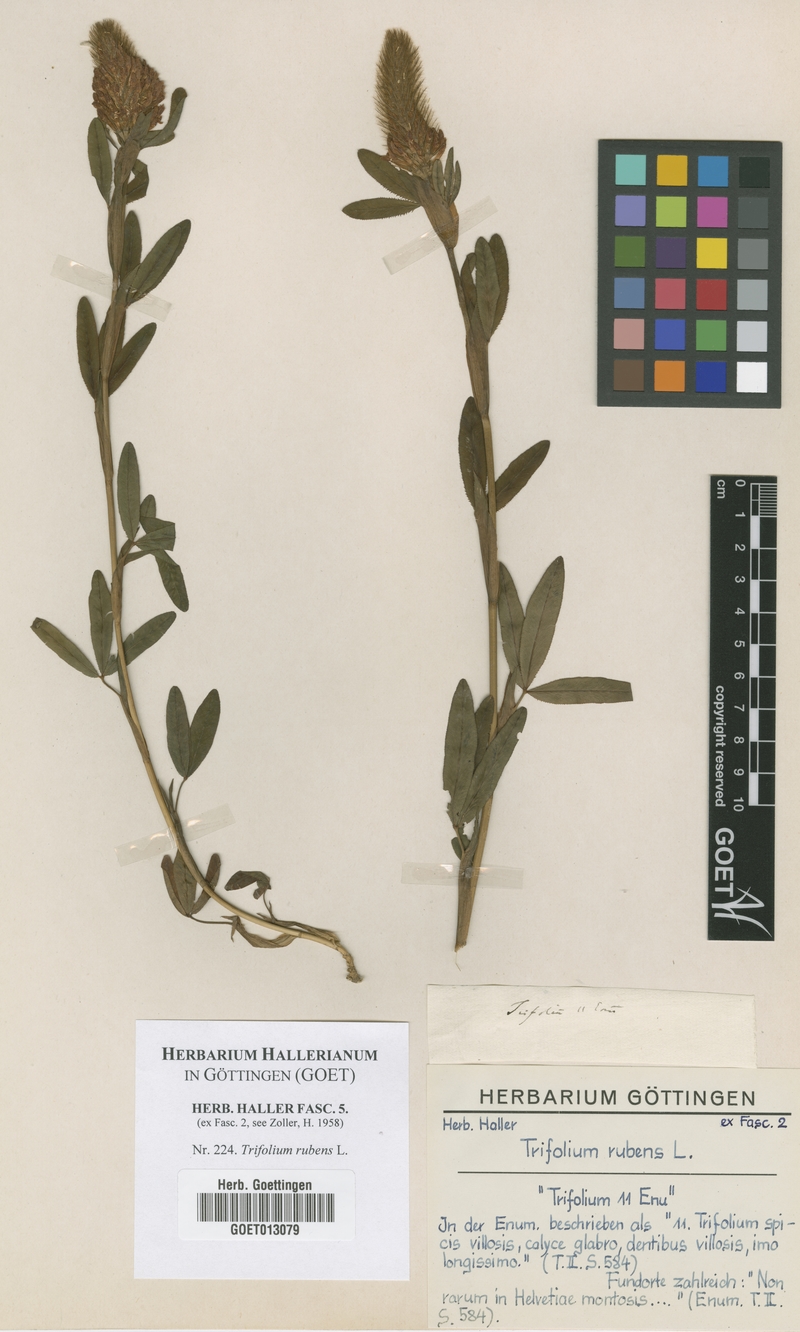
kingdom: Plantae
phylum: Tracheophyta
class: Magnoliopsida
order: Fabales
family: Fabaceae
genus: Trifolium
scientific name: Trifolium rubens
